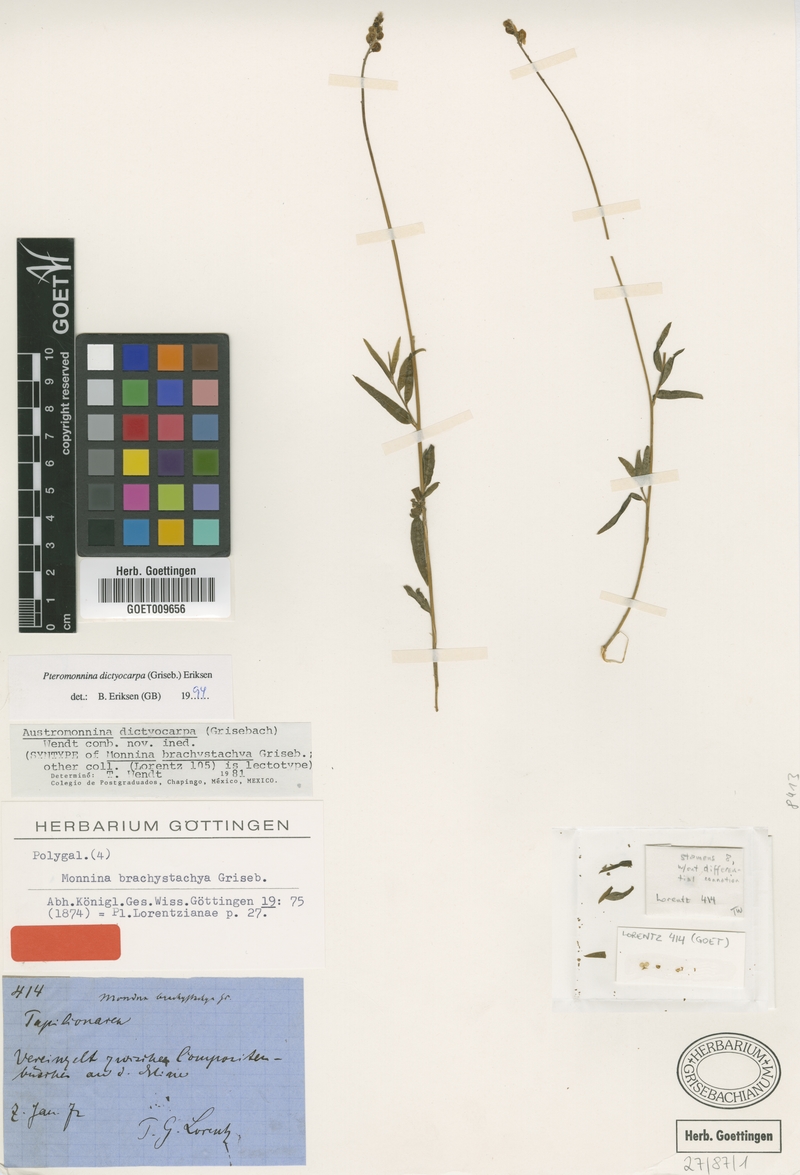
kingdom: Plantae
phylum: Tracheophyta
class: Magnoliopsida
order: Fabales
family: Polygalaceae
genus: Monnina
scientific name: Monnina wrightii
